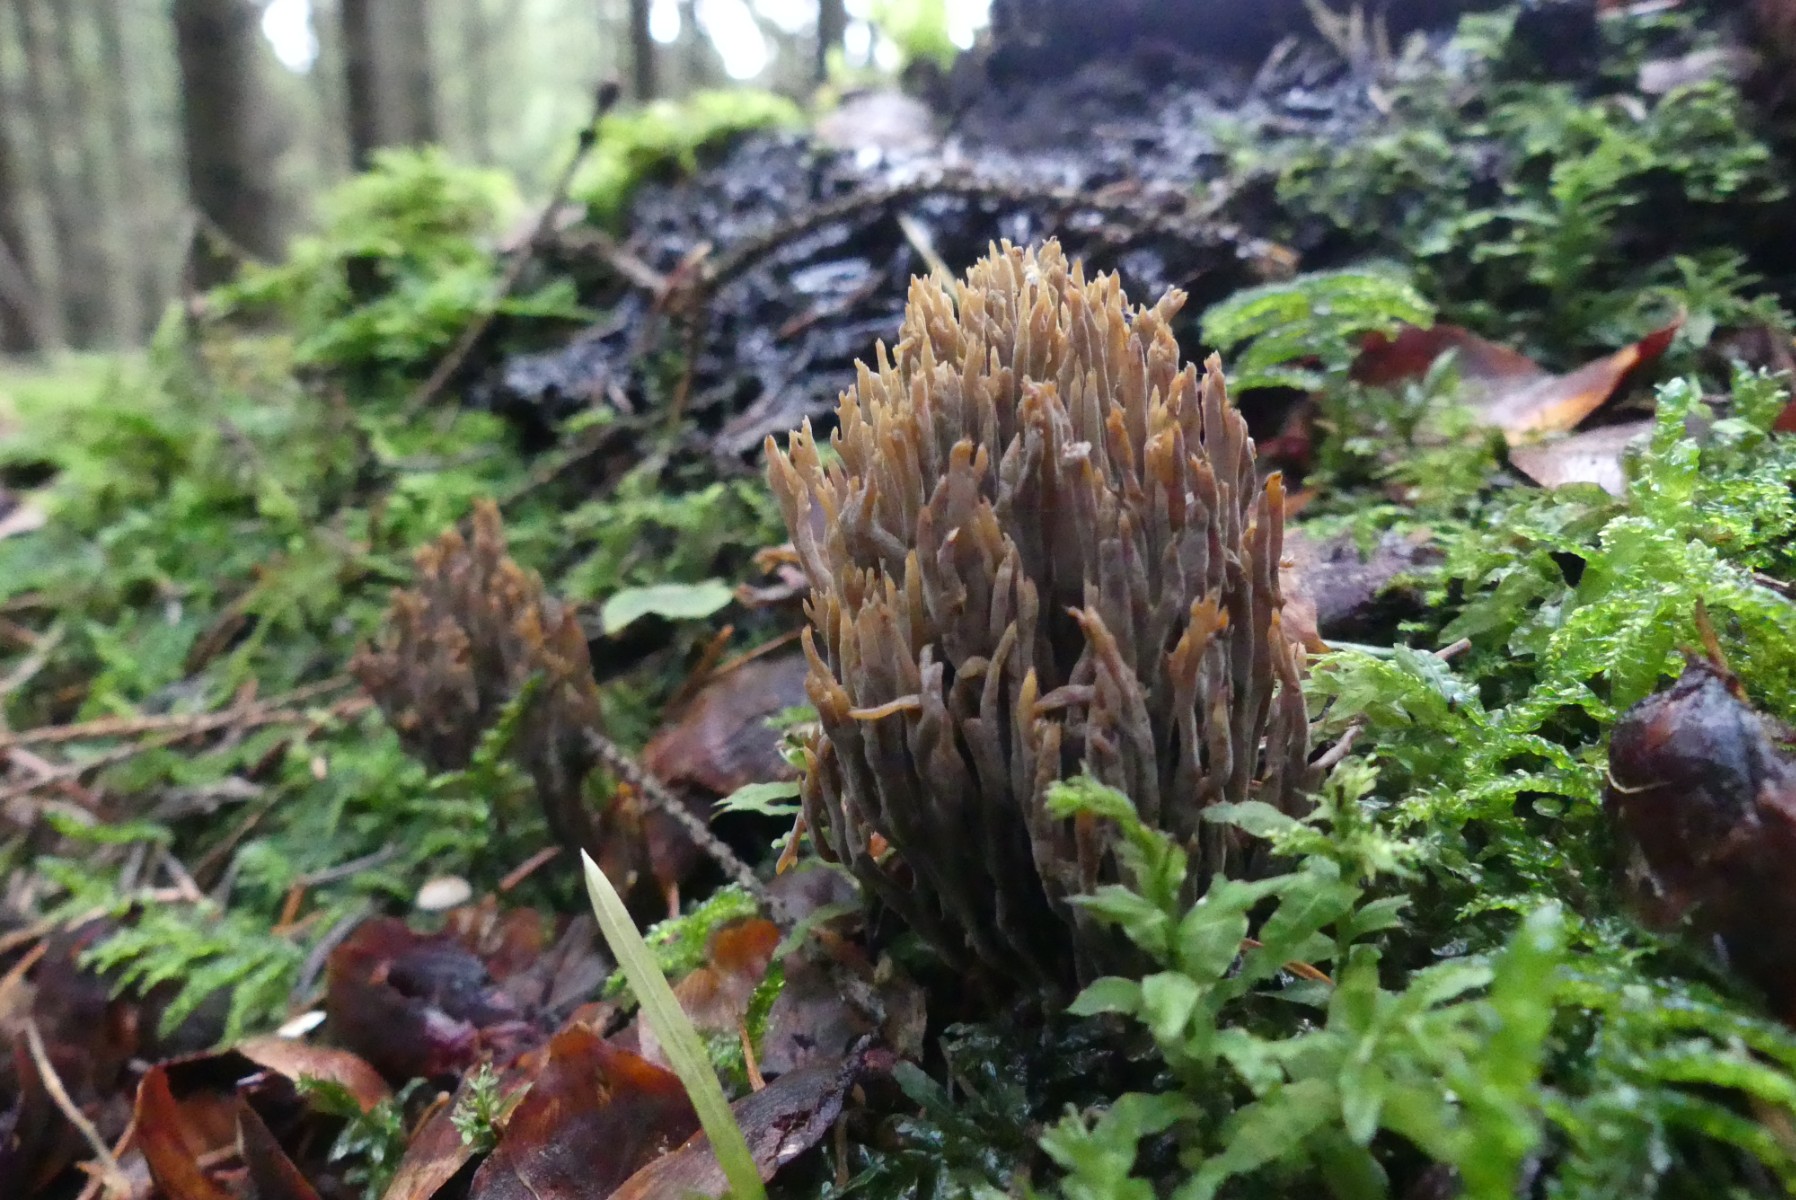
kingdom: Fungi
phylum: Basidiomycota
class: Agaricomycetes
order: Thelephorales
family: Thelephoraceae
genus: Thelephora
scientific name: Thelephora palmata
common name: grenet frynsesvamp
